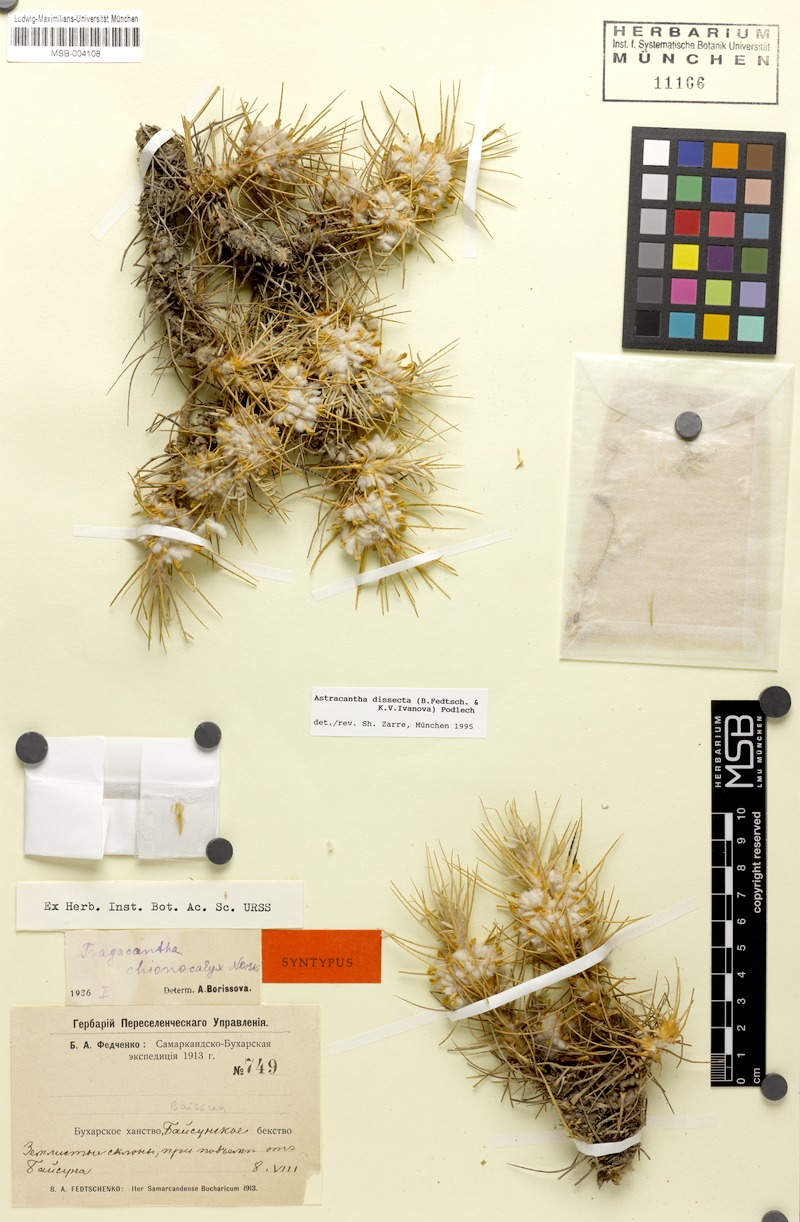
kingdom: Plantae
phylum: Tracheophyta
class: Magnoliopsida
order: Fabales
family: Fabaceae
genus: Astragalus
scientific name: Astragalus dissectus
